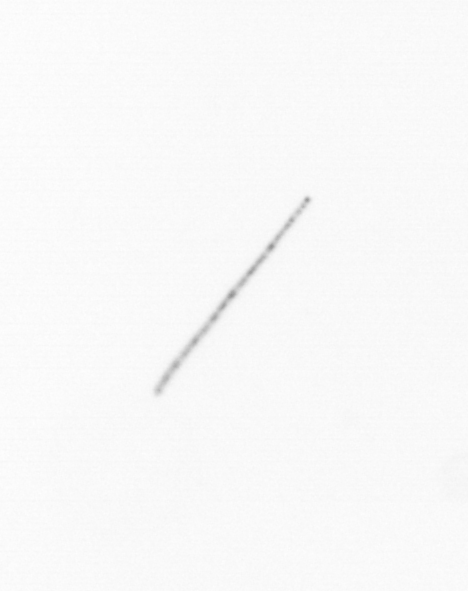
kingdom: Chromista
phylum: Ochrophyta
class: Bacillariophyceae
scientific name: Bacillariophyceae
